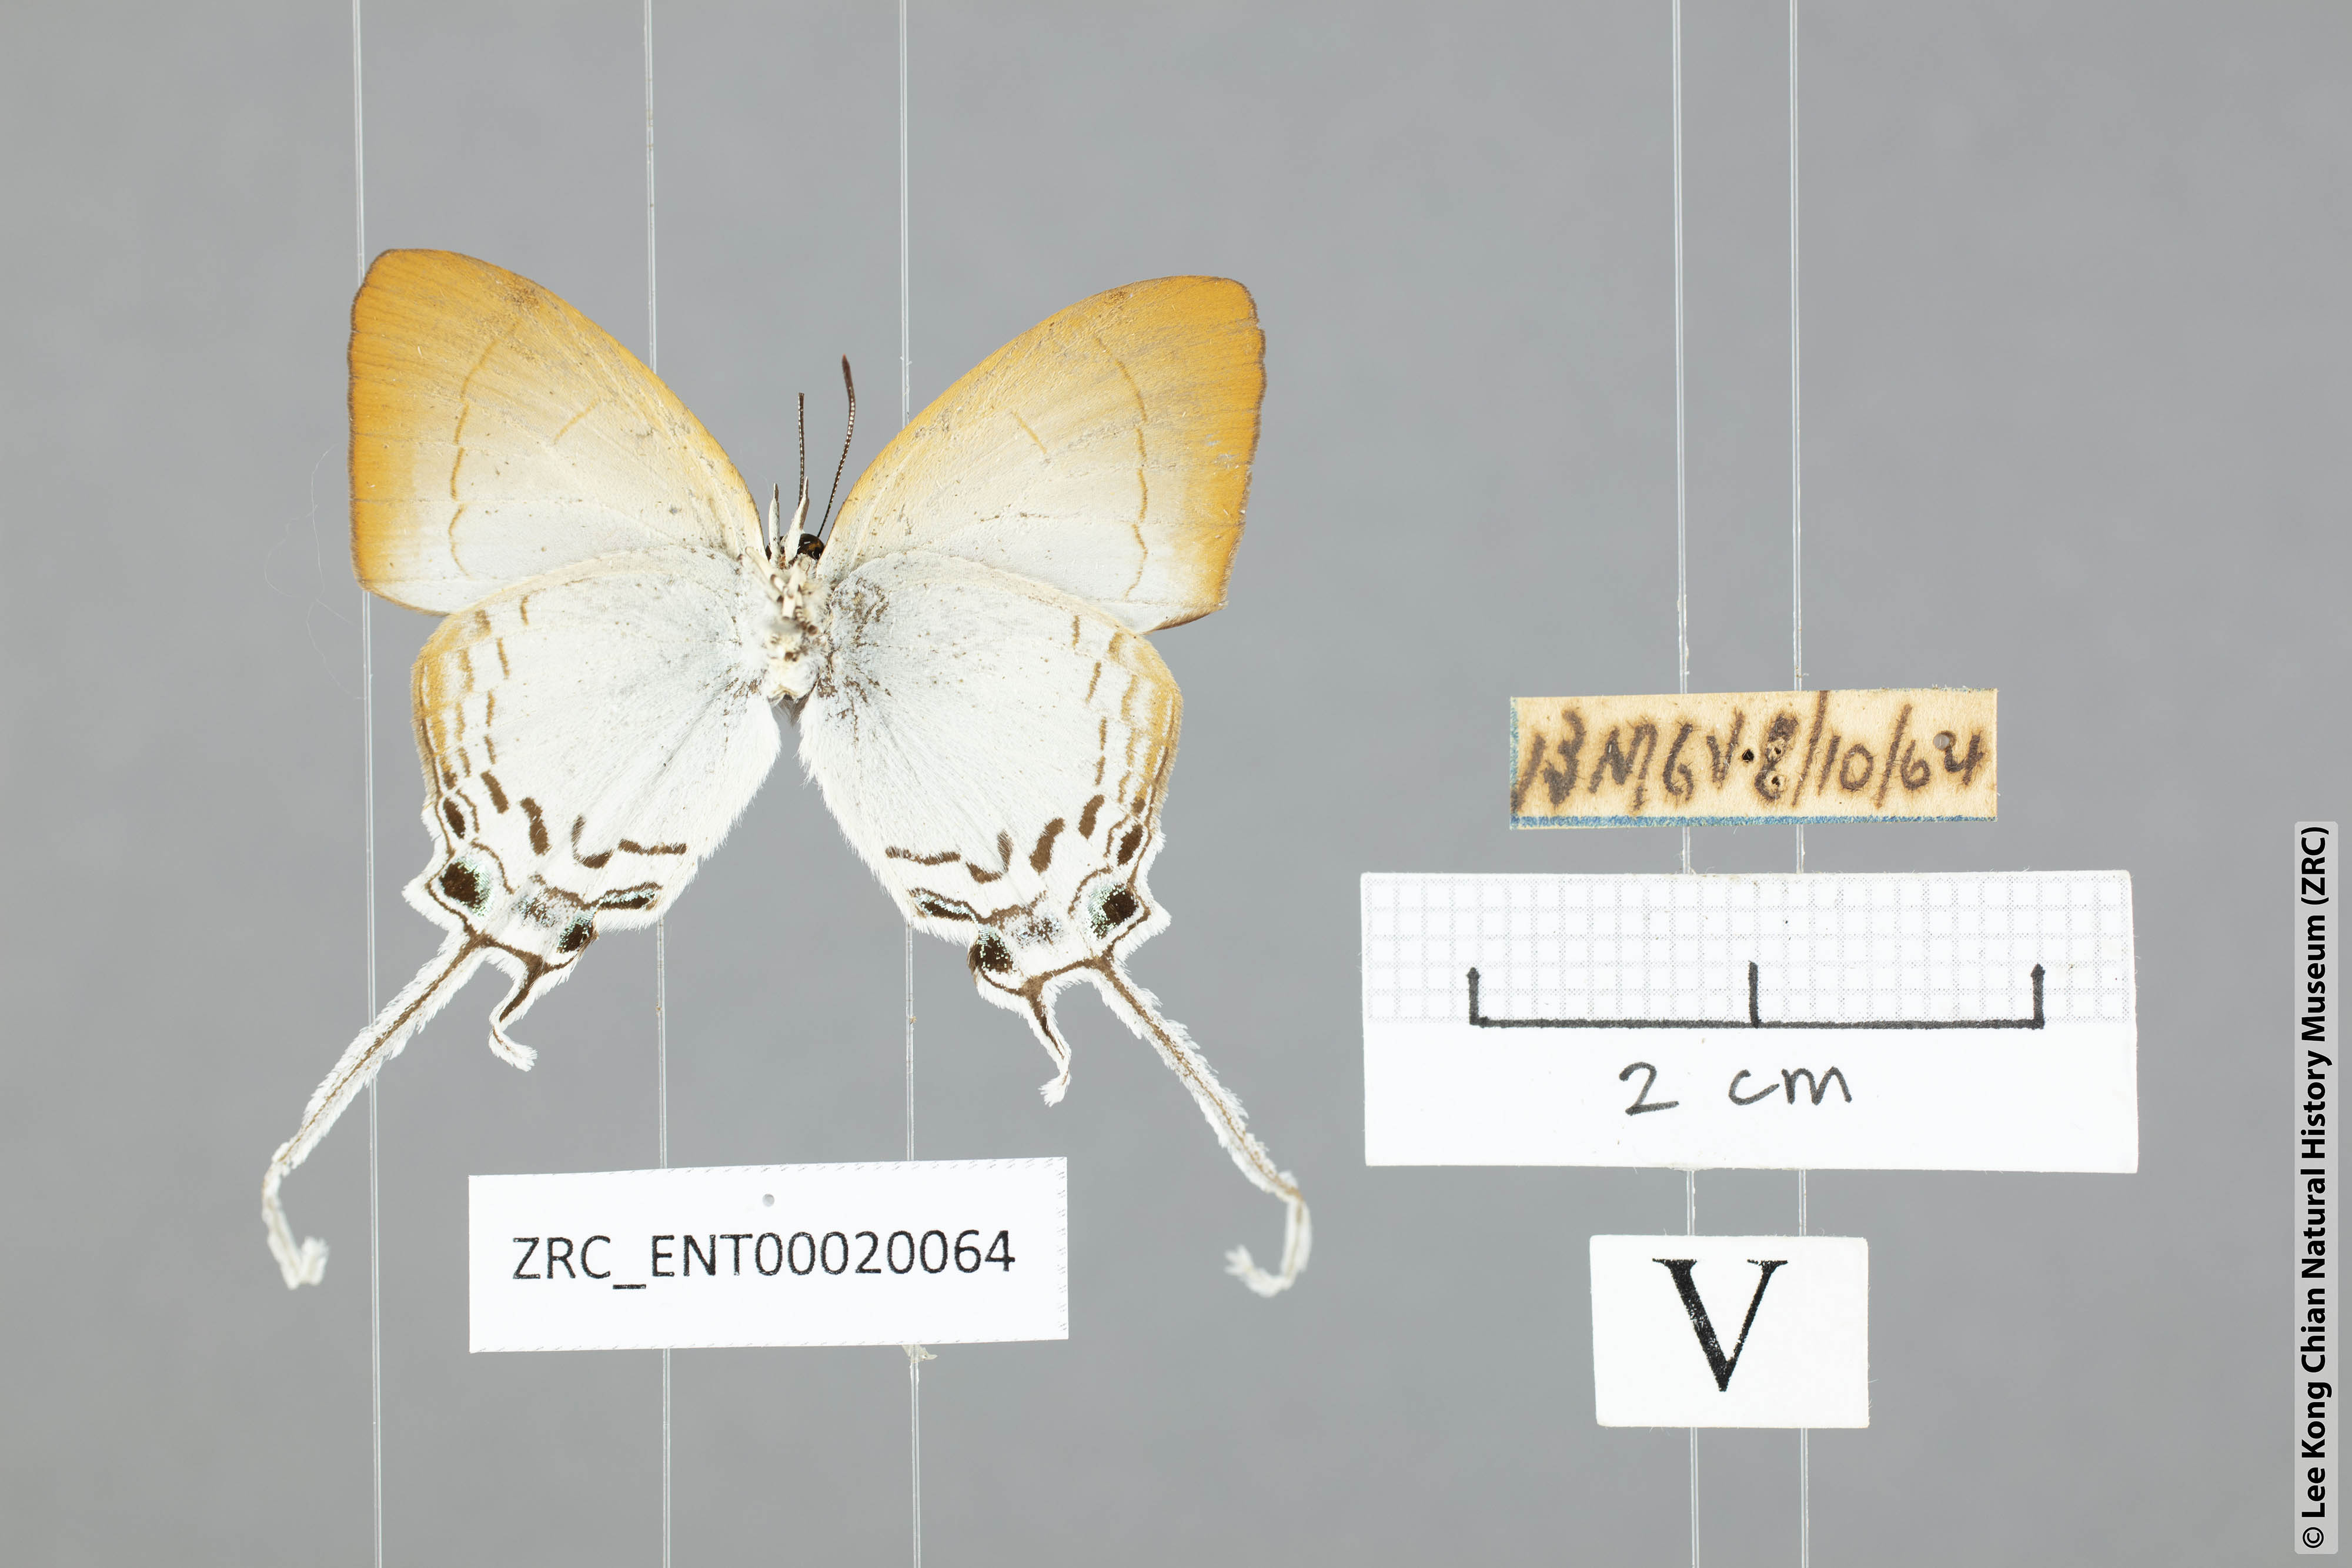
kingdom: Animalia
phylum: Arthropoda
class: Insecta
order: Lepidoptera
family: Lycaenidae
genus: Cheritra
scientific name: Cheritra freja
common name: Common imperial
